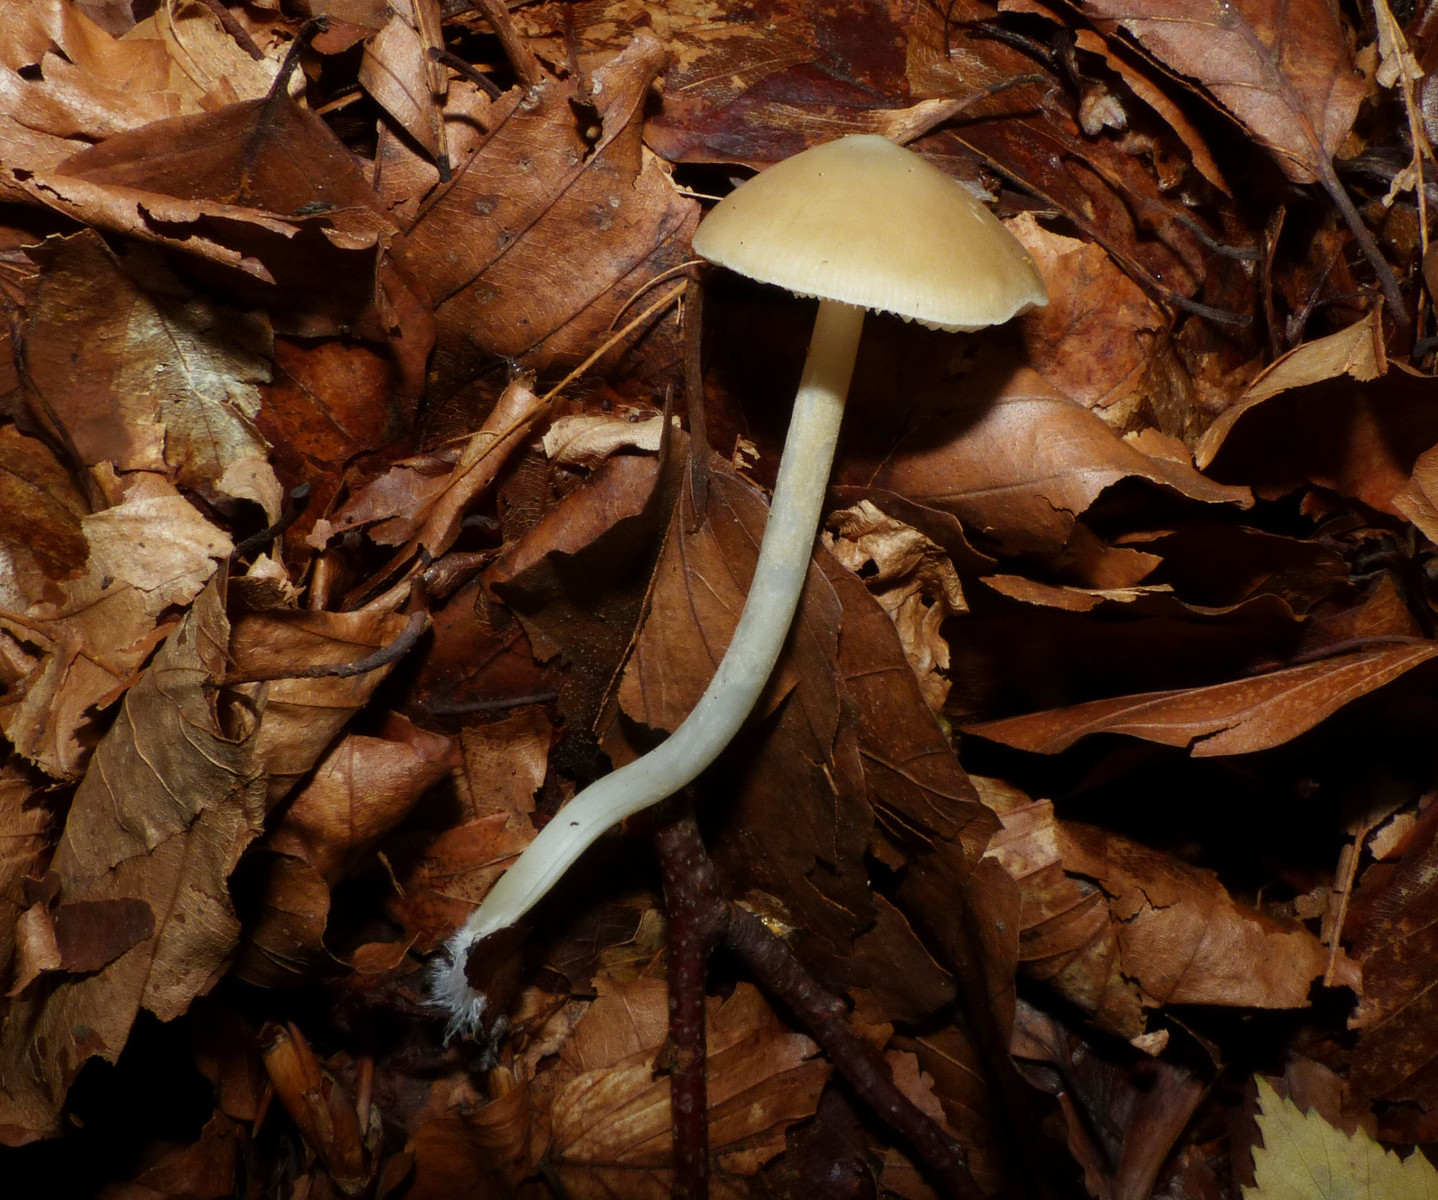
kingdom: Fungi
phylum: Basidiomycota
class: Agaricomycetes
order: Agaricales
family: Porotheleaceae
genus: Hydropodia
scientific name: Hydropodia subalpina
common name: vår-fnugfod
